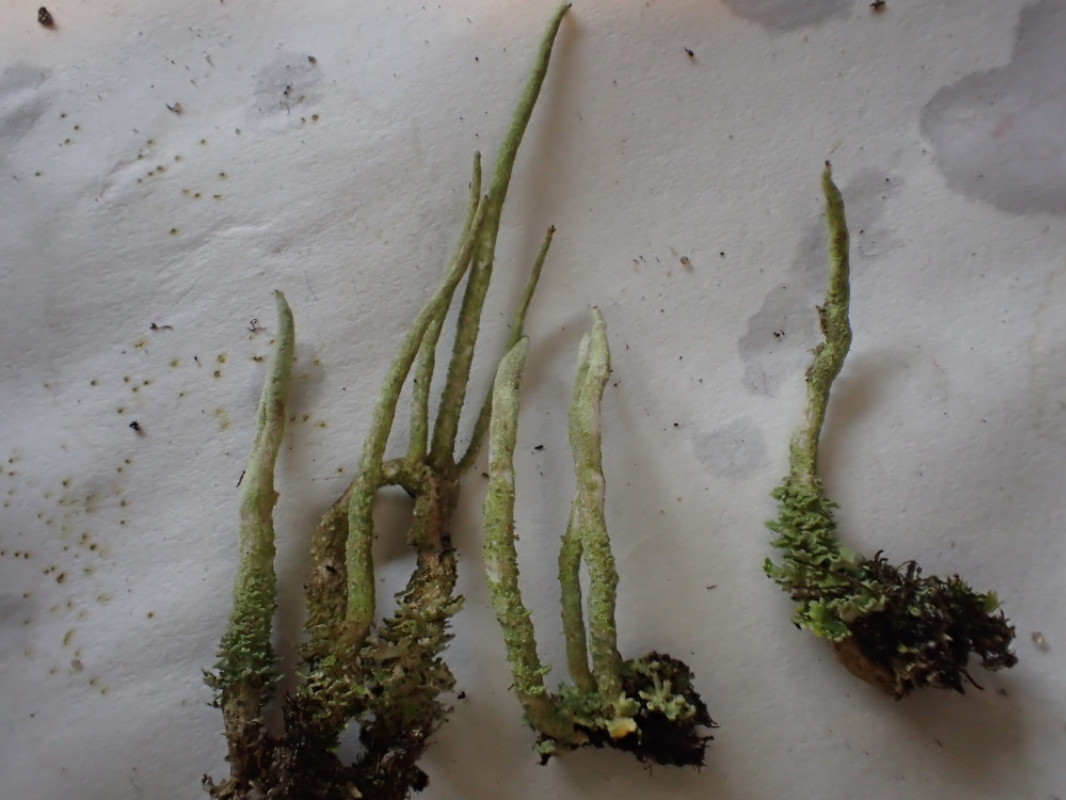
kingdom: Fungi
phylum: Ascomycota
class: Lecanoromycetes
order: Lecanorales
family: Cladoniaceae
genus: Cladonia
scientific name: Cladonia glauca
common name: grågrøn bægerlav
